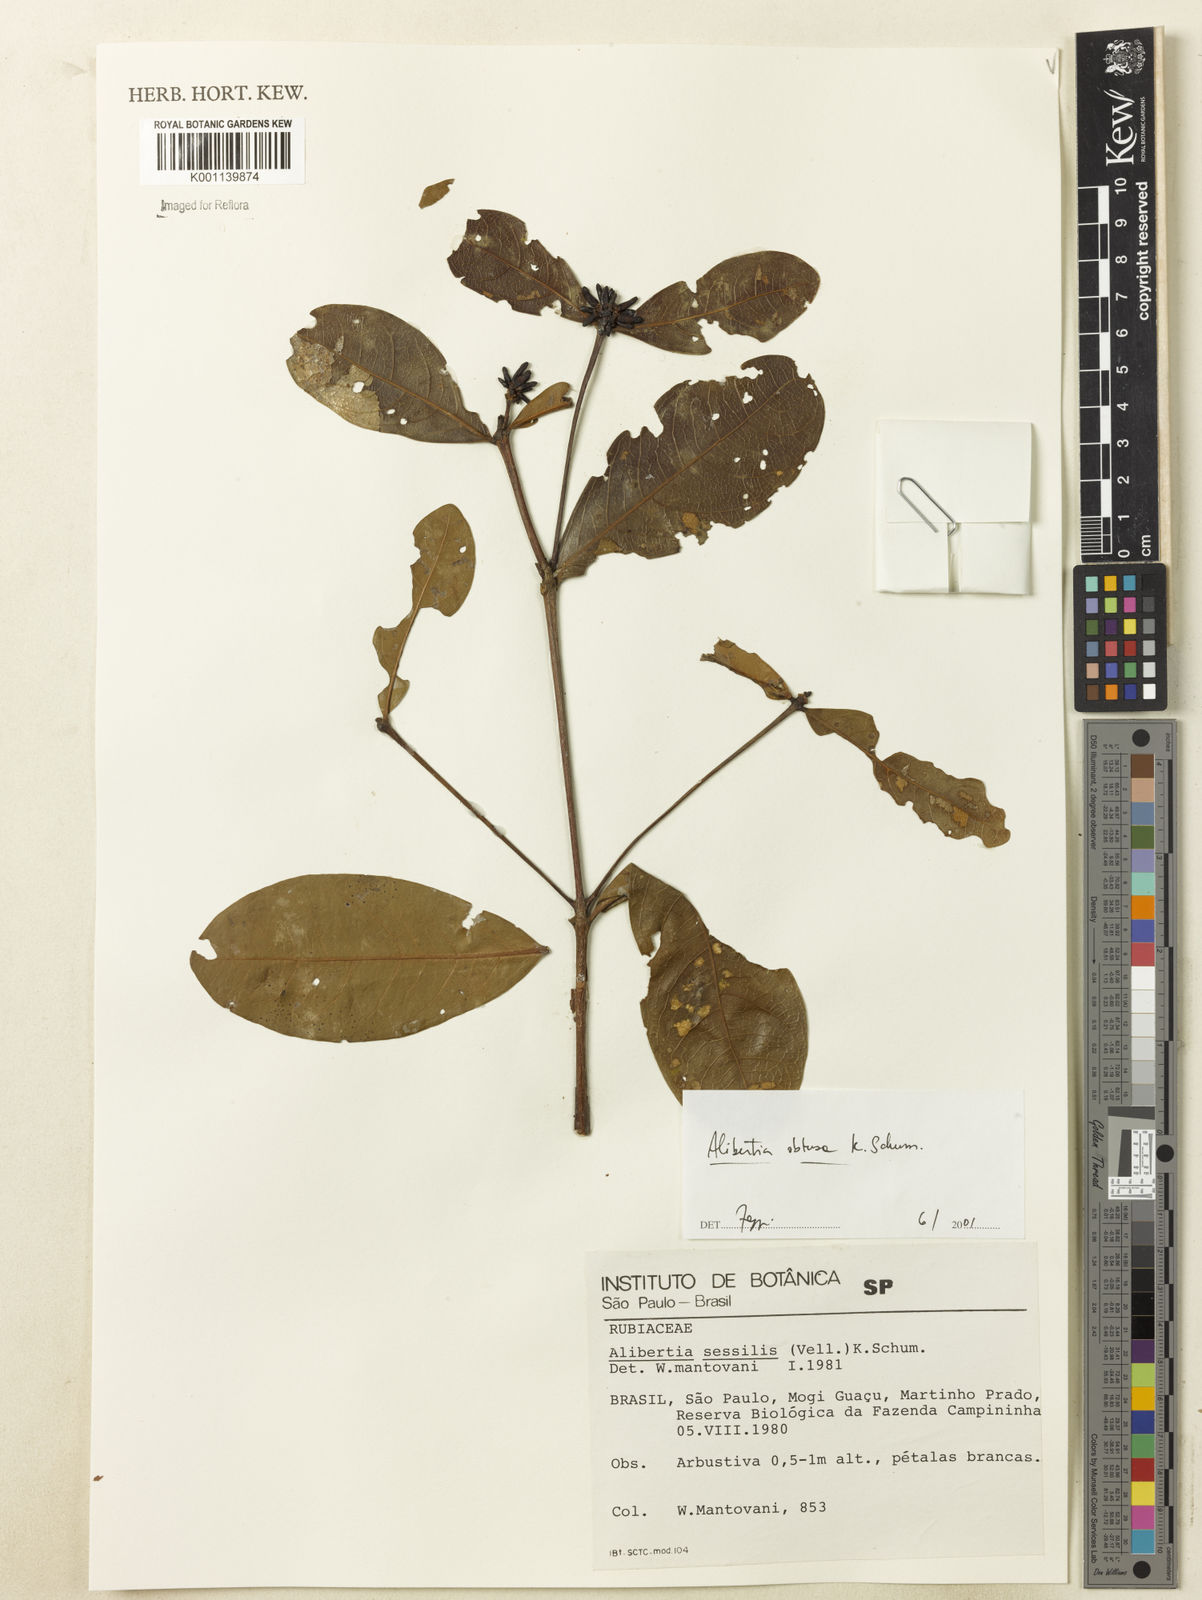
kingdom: Plantae
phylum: Tracheophyta
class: Magnoliopsida
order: Gentianales
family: Rubiaceae
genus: Cordiera
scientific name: Cordiera obtusa
